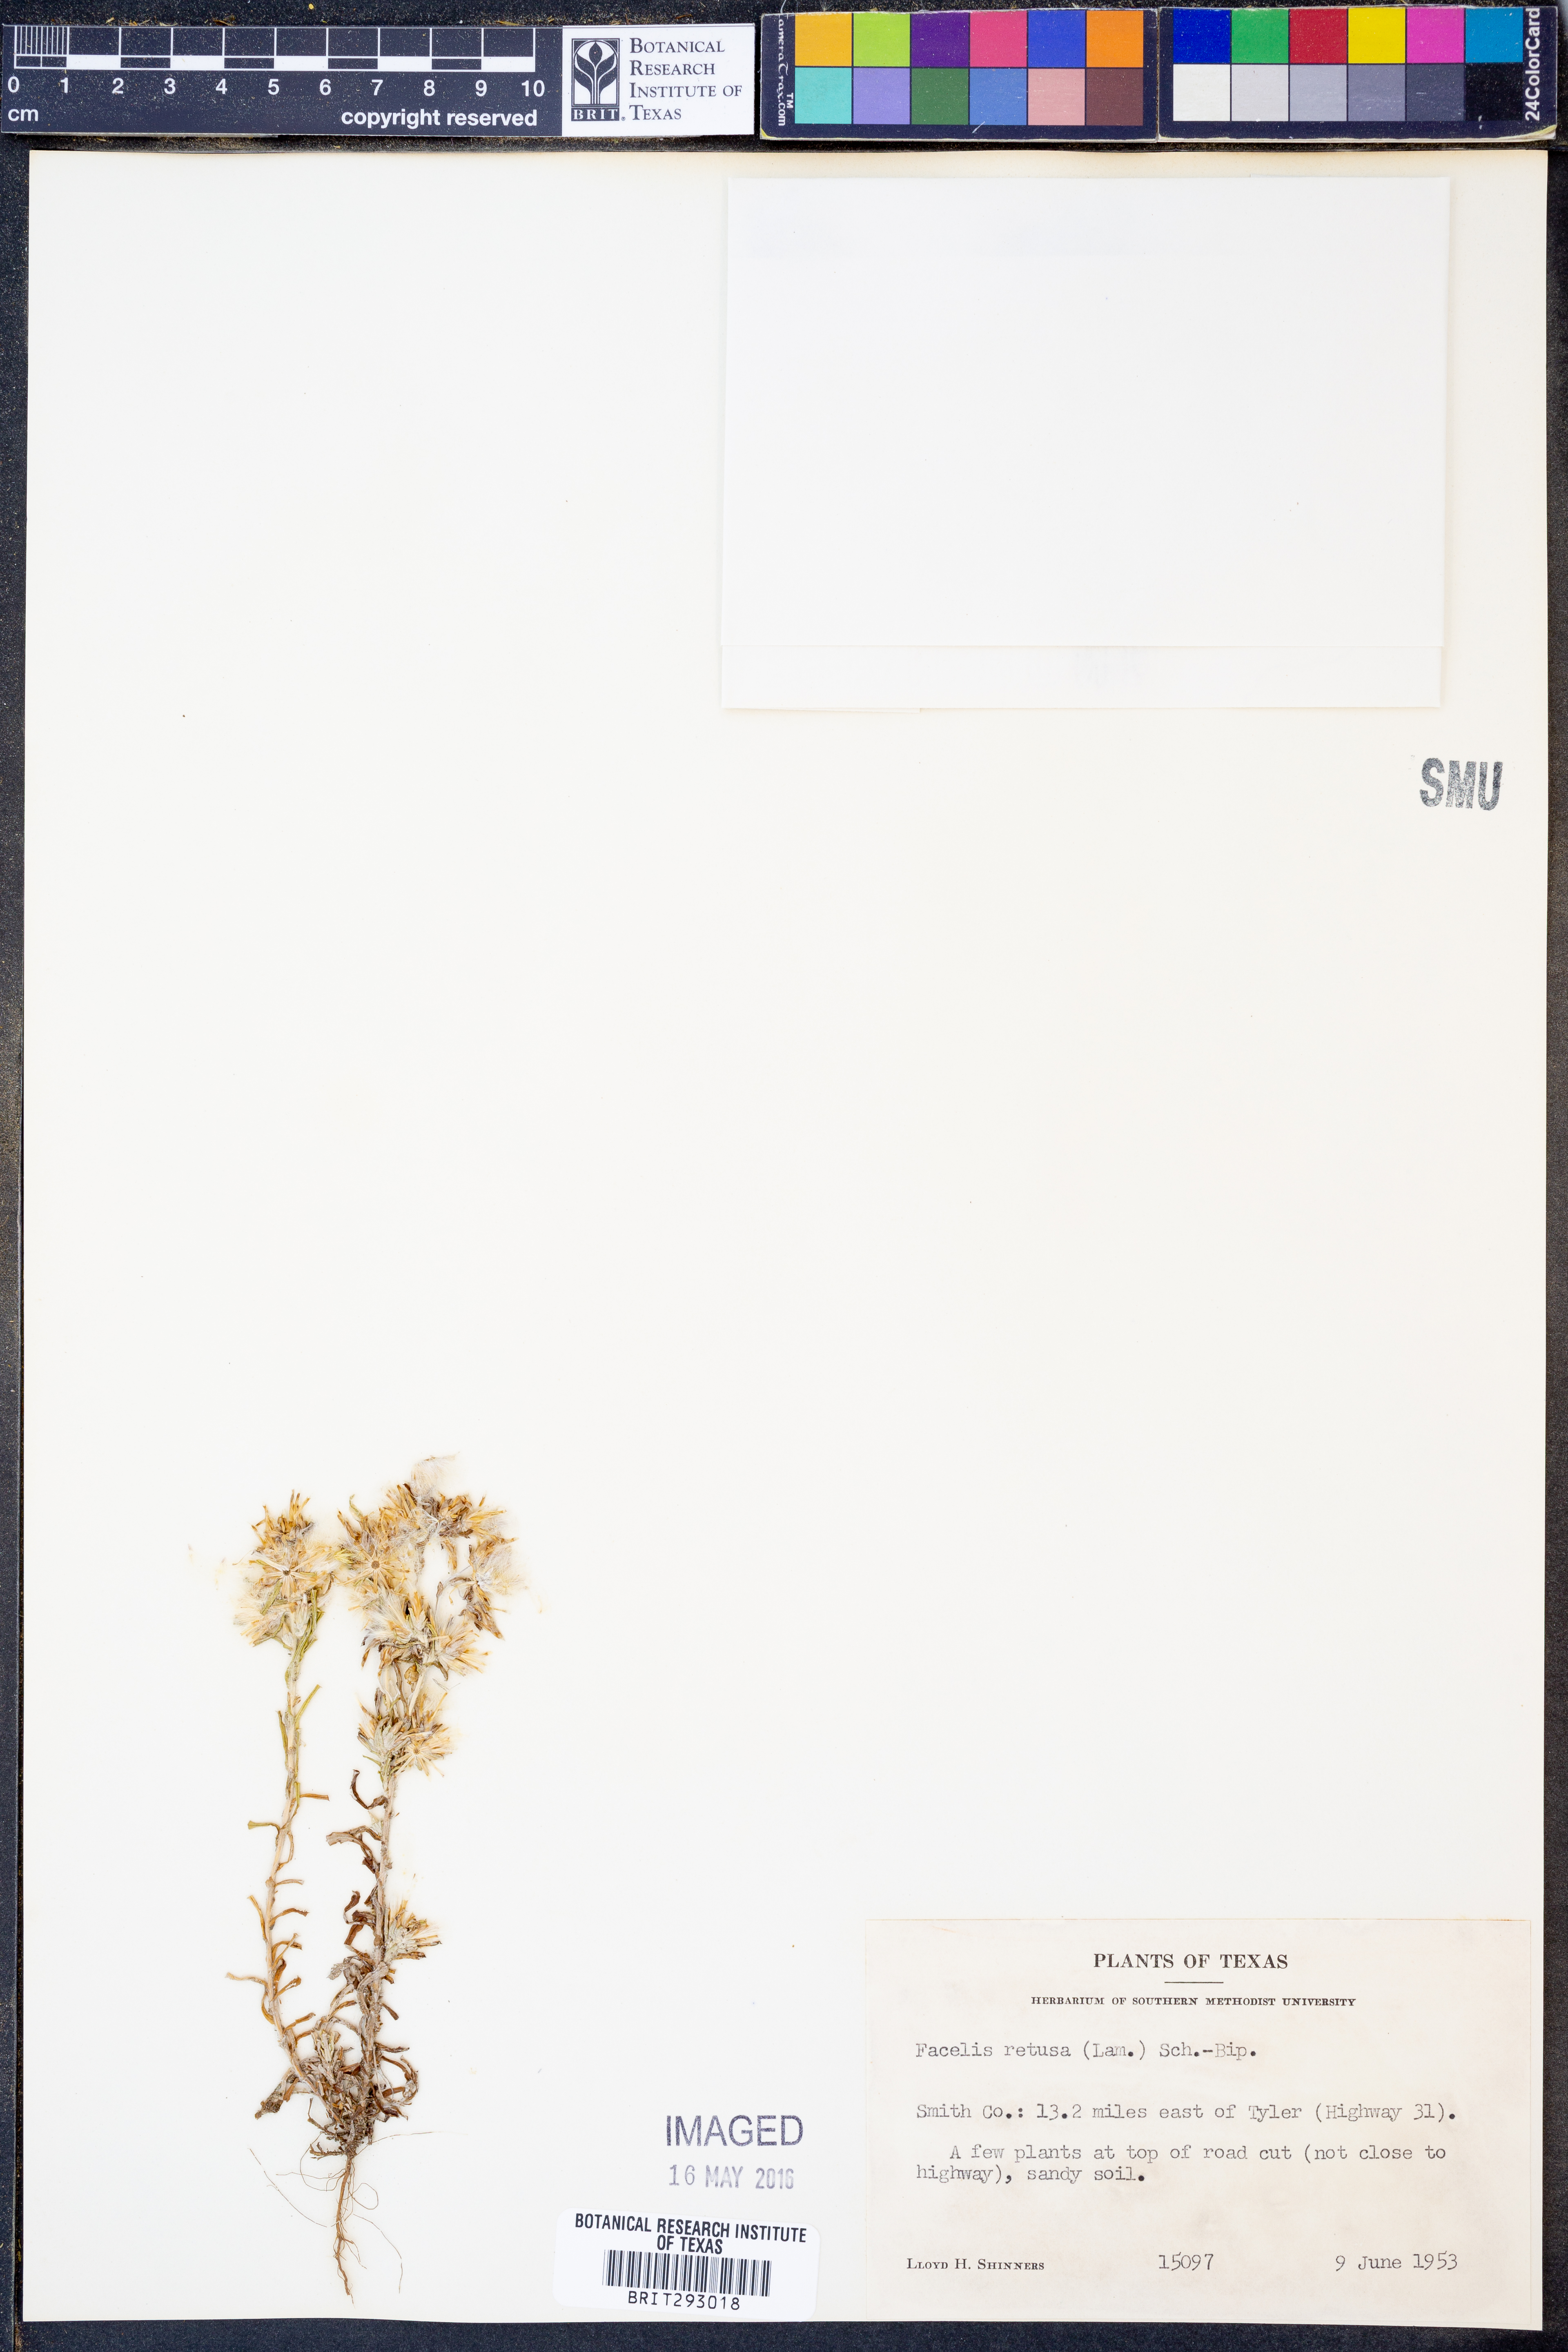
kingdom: Plantae
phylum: Tracheophyta
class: Magnoliopsida
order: Asterales
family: Asteraceae
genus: Facelis
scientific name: Facelis retusa
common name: Annual trampweed
